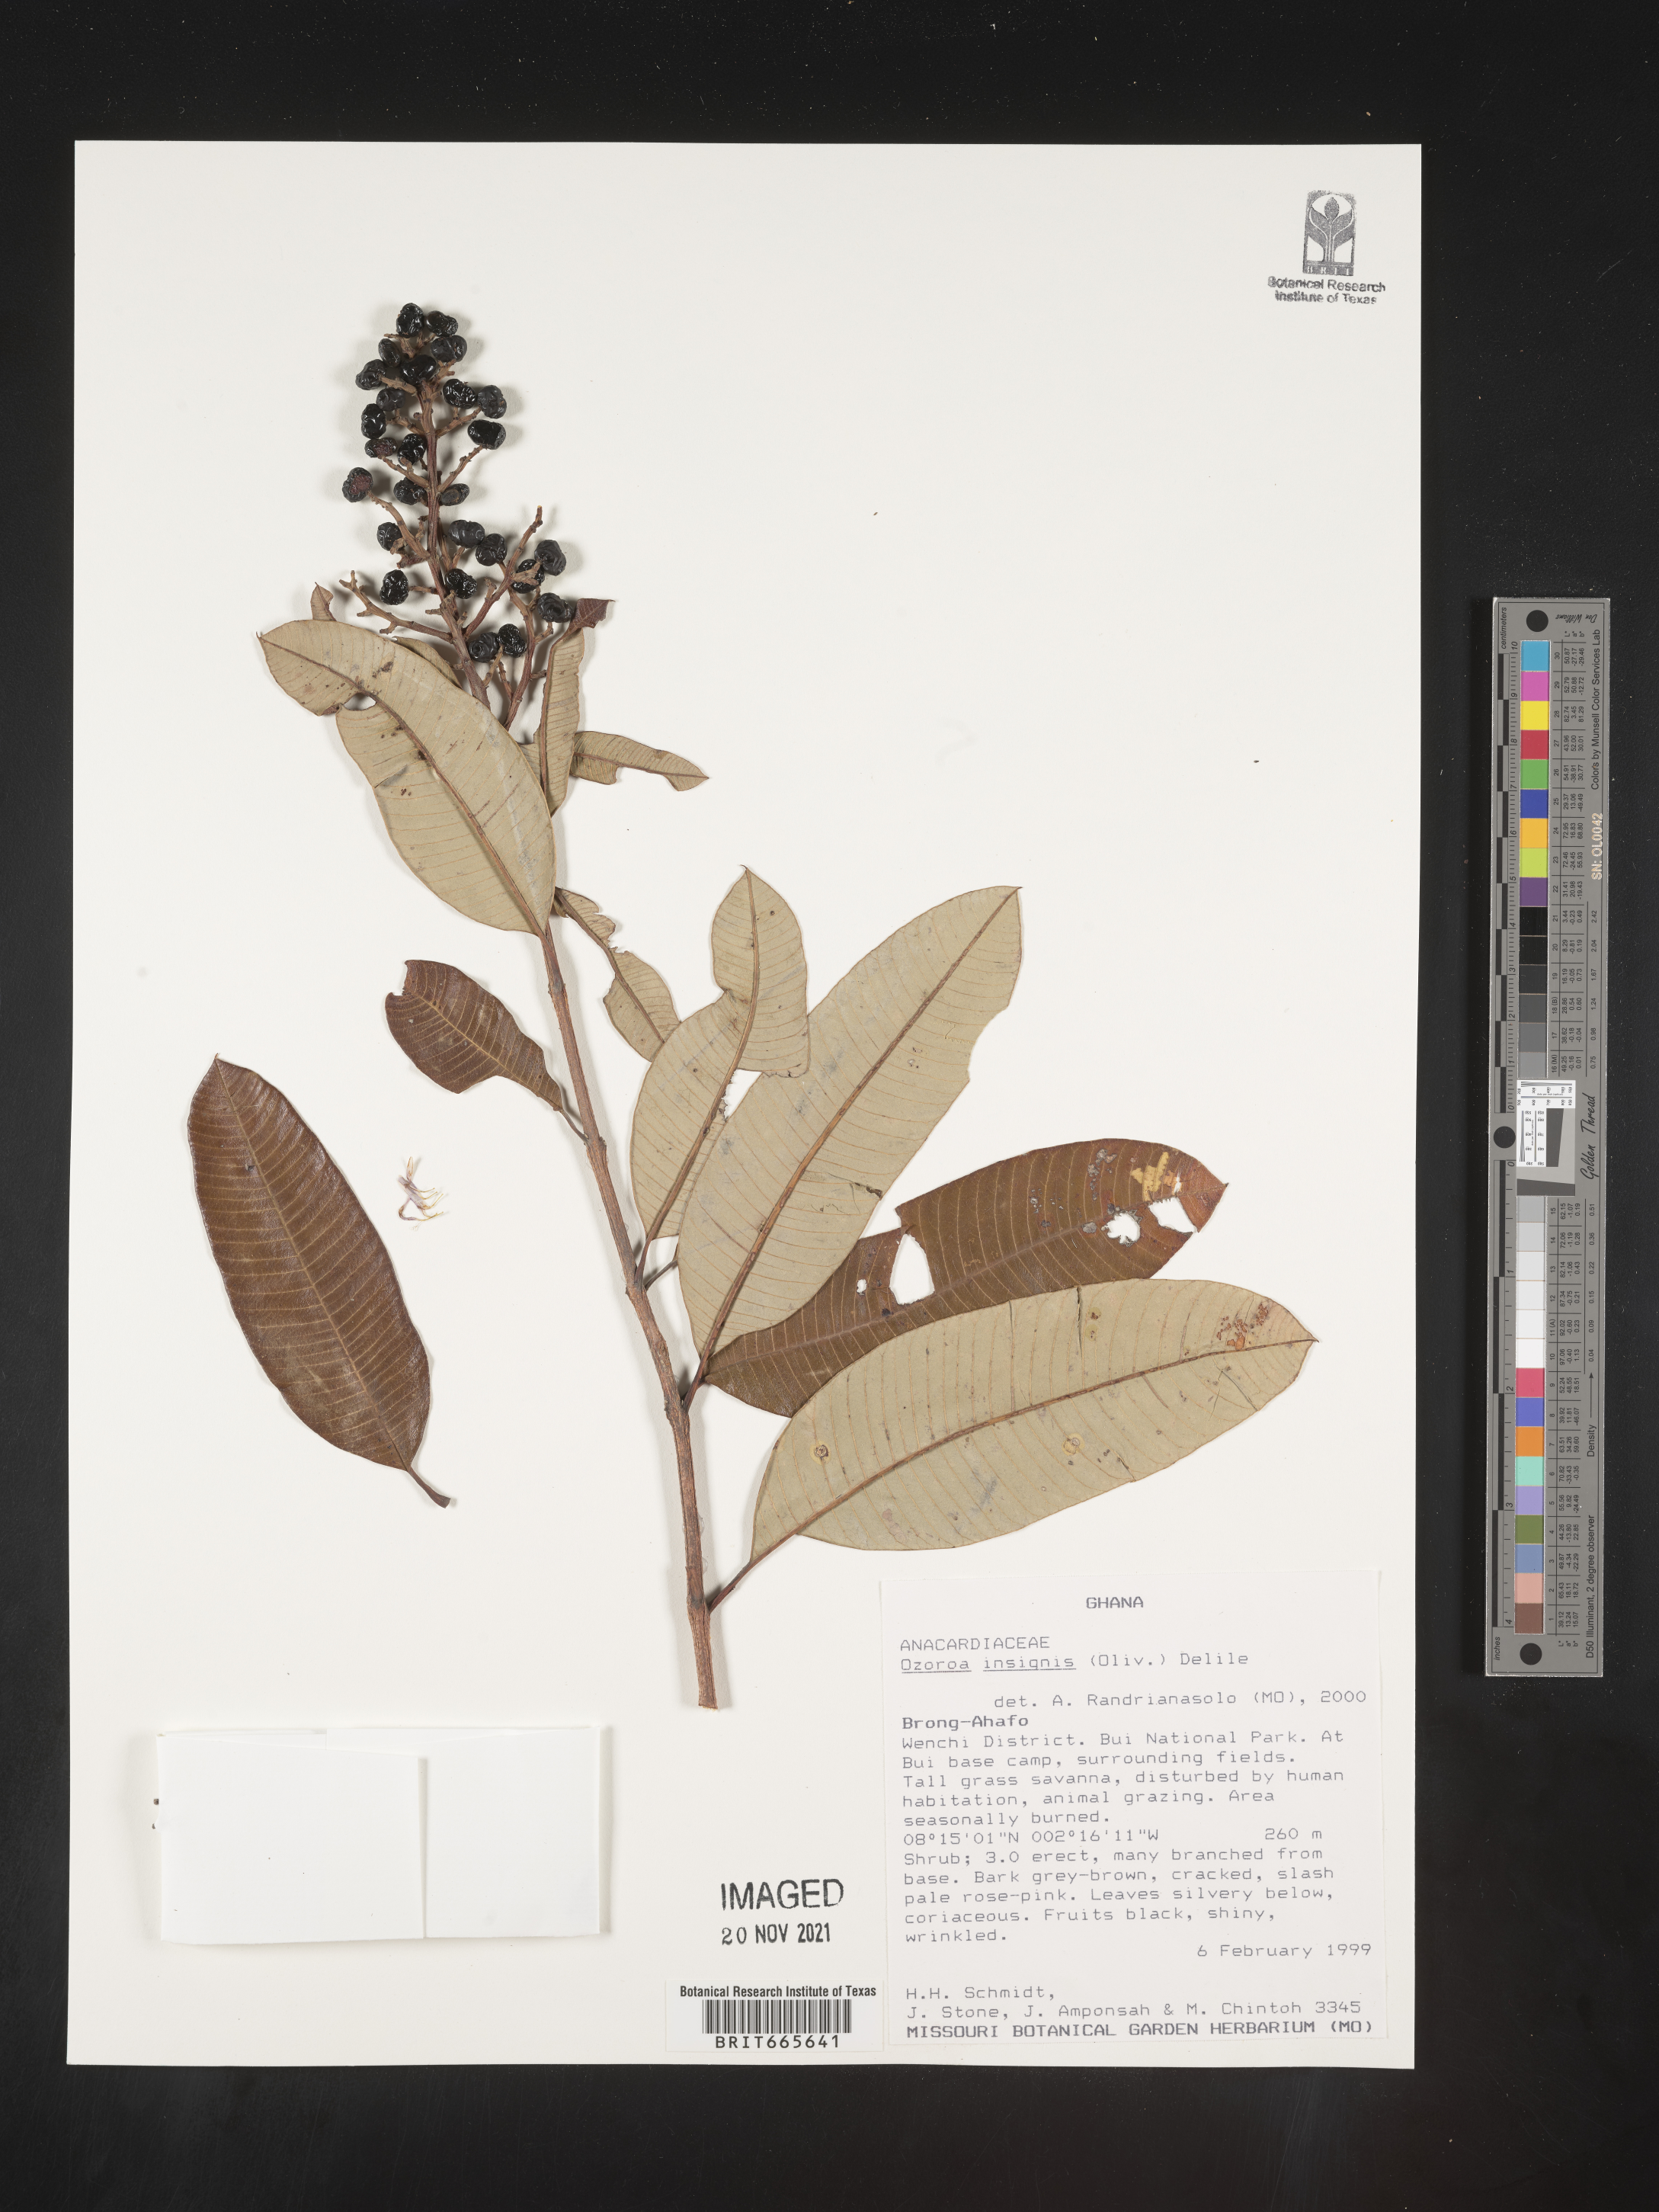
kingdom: Plantae
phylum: Tracheophyta
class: Magnoliopsida
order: Sapindales
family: Anacardiaceae
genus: Ozoroa
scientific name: Ozoroa
